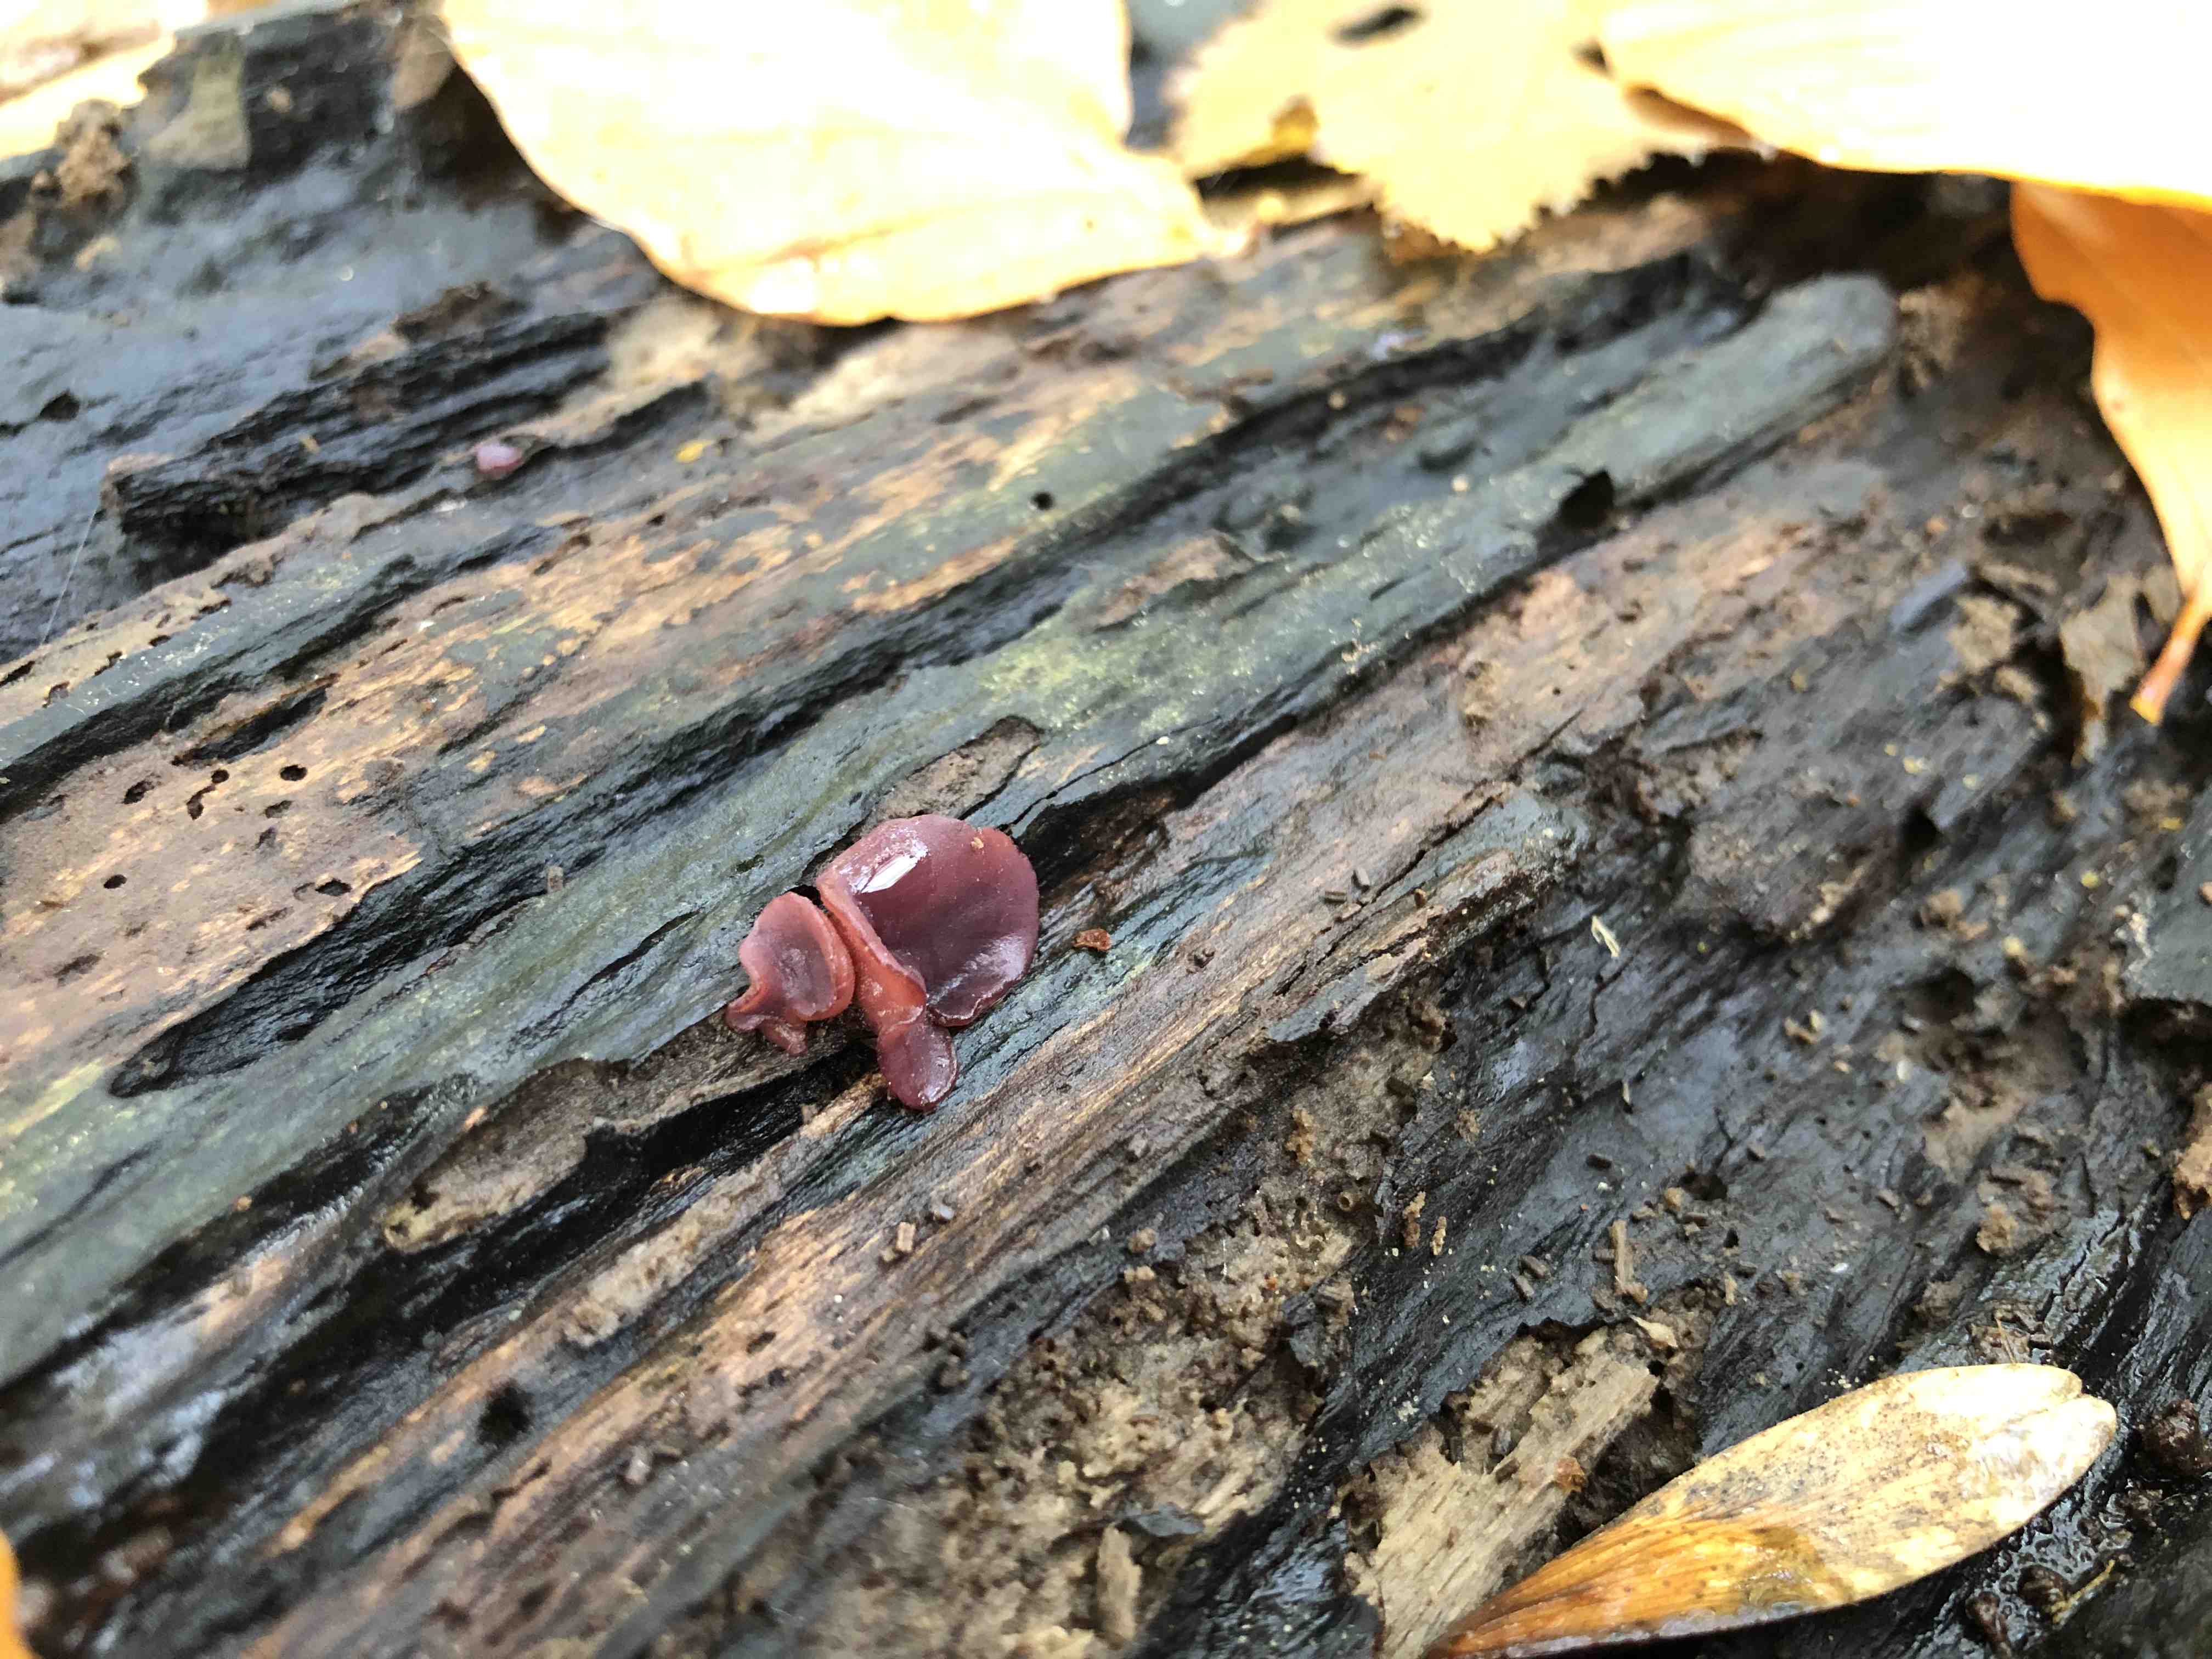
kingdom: Fungi
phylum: Ascomycota
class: Leotiomycetes
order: Helotiales
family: Gelatinodiscaceae
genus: Ascocoryne
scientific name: Ascocoryne cylichnium
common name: stor sejskive
